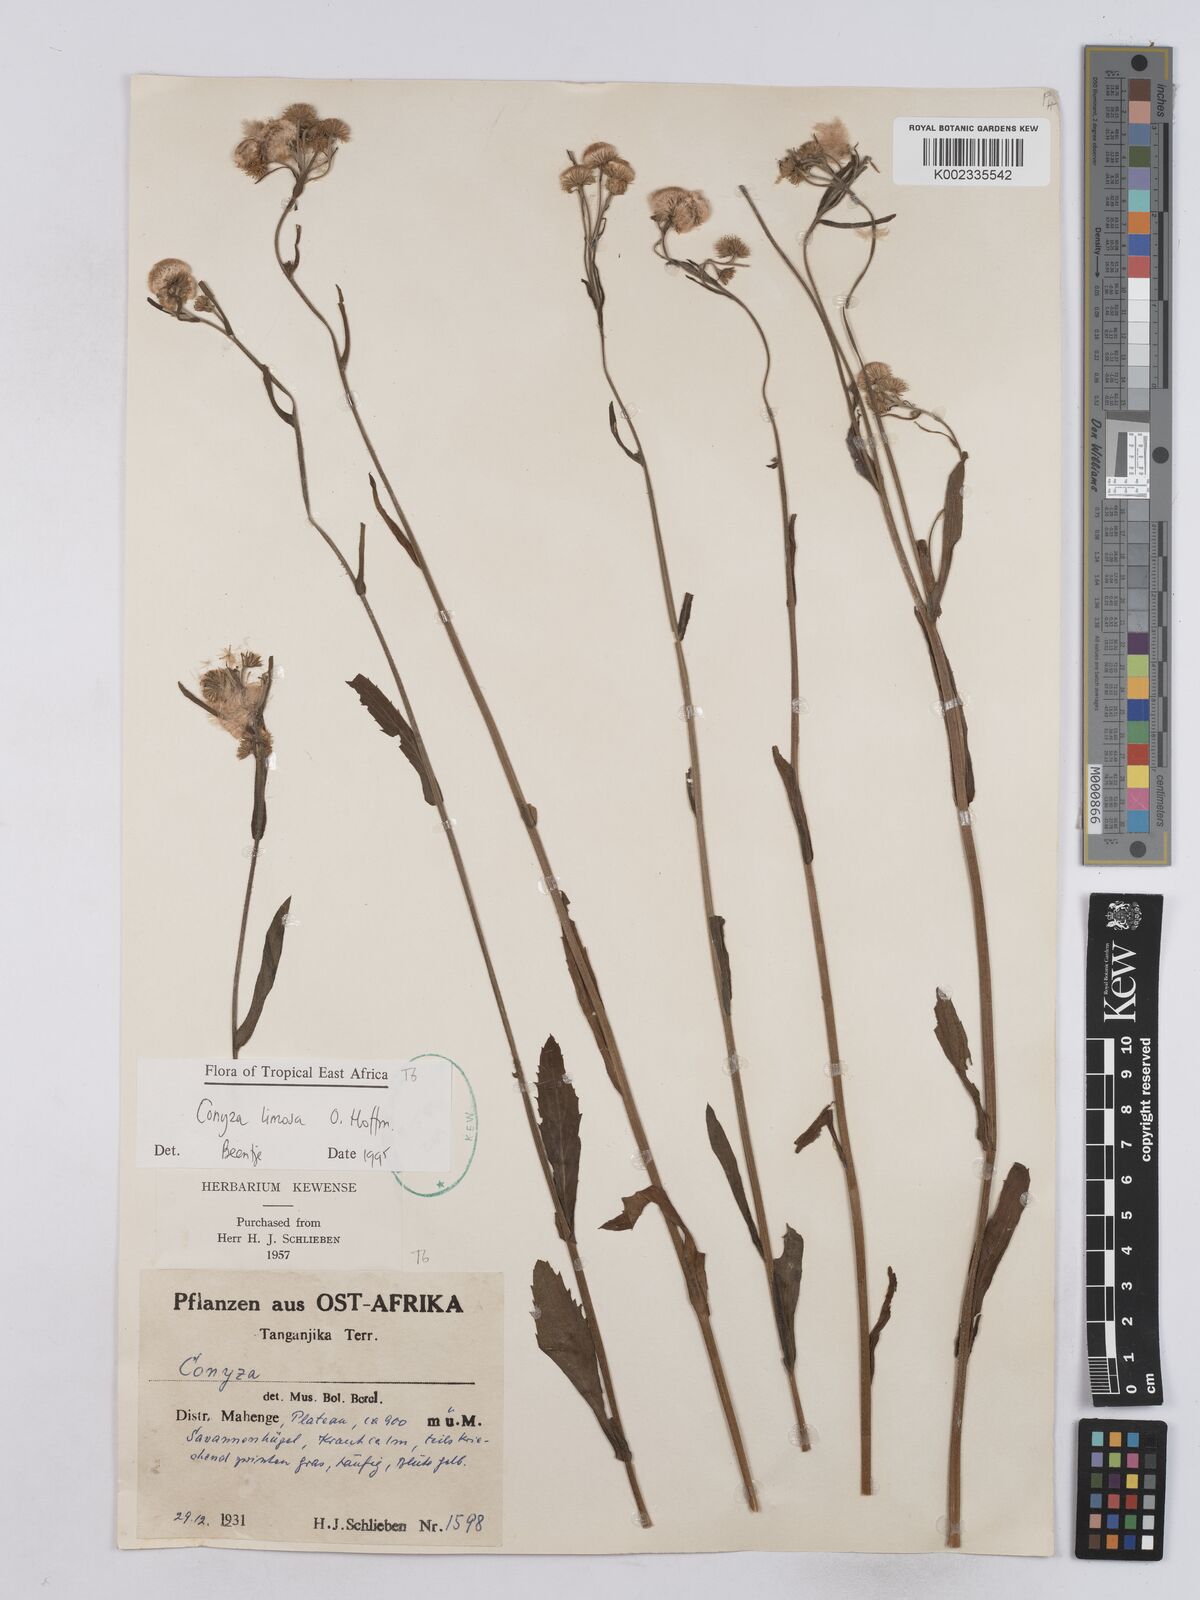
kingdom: Plantae
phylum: Tracheophyta
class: Magnoliopsida
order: Asterales
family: Asteraceae
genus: Conyza
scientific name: Conyza limosa
